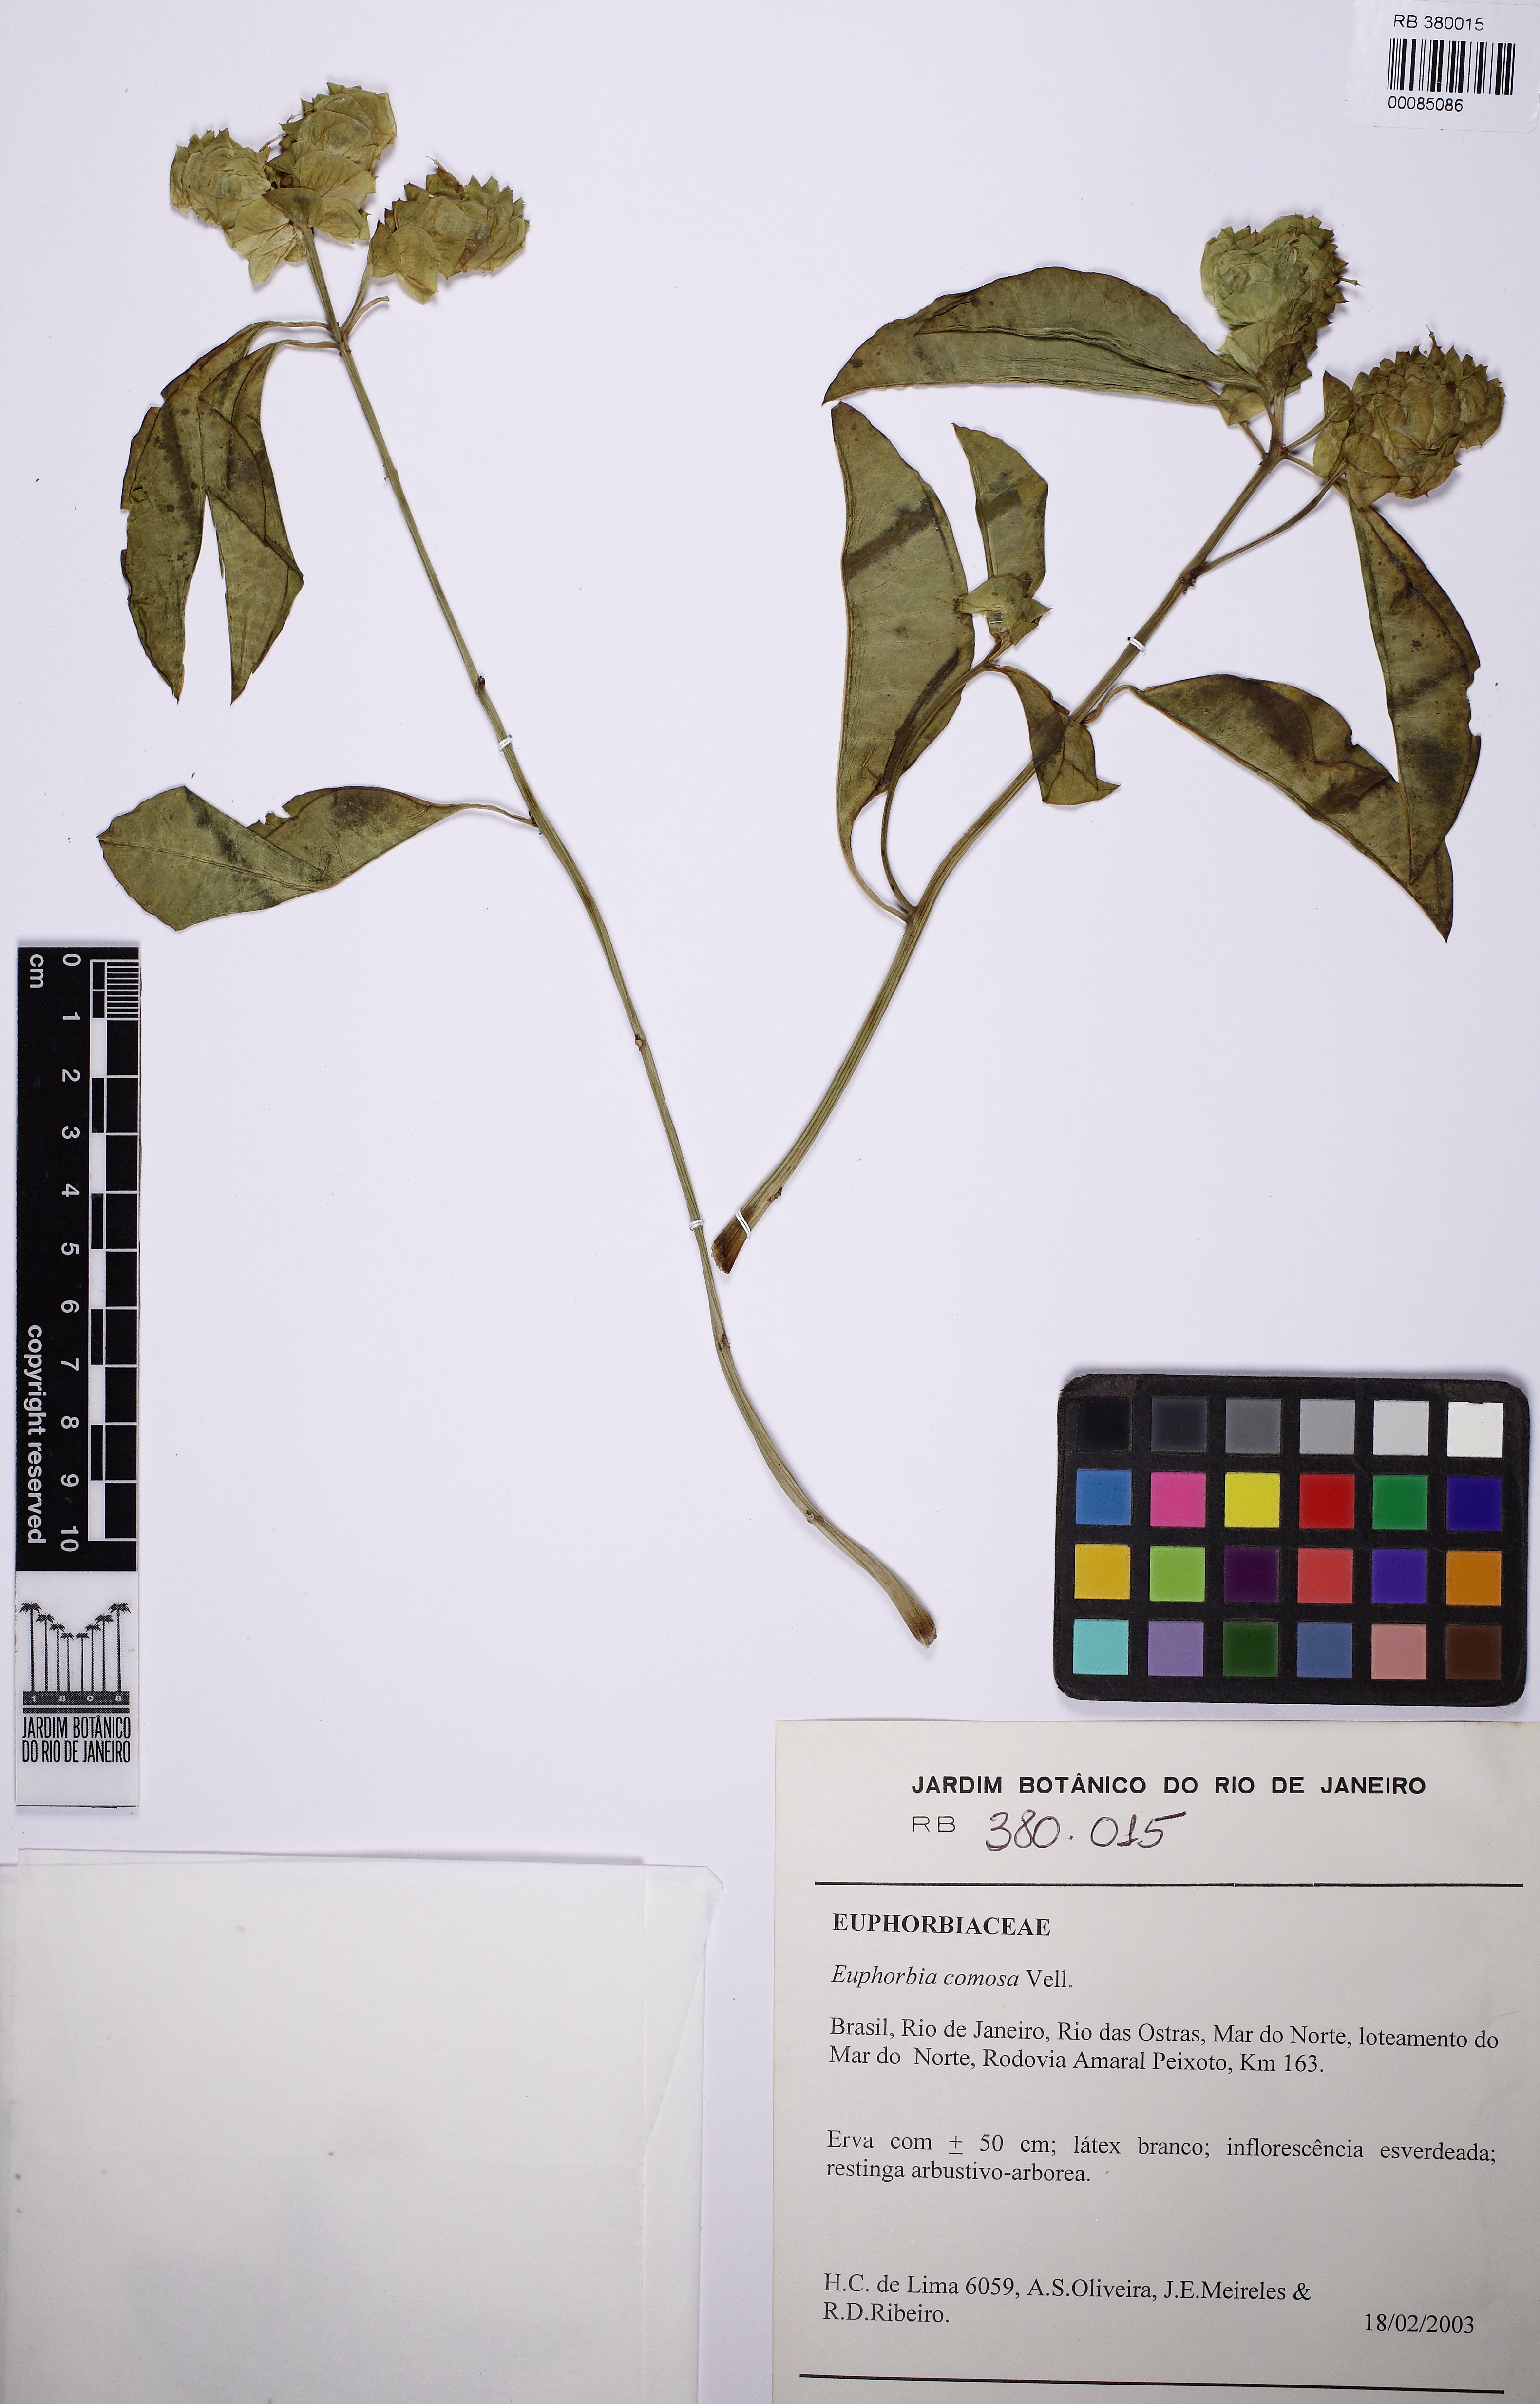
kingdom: Plantae
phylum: Tracheophyta
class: Magnoliopsida
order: Malpighiales
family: Euphorbiaceae
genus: Euphorbia
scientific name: Euphorbia comosa
